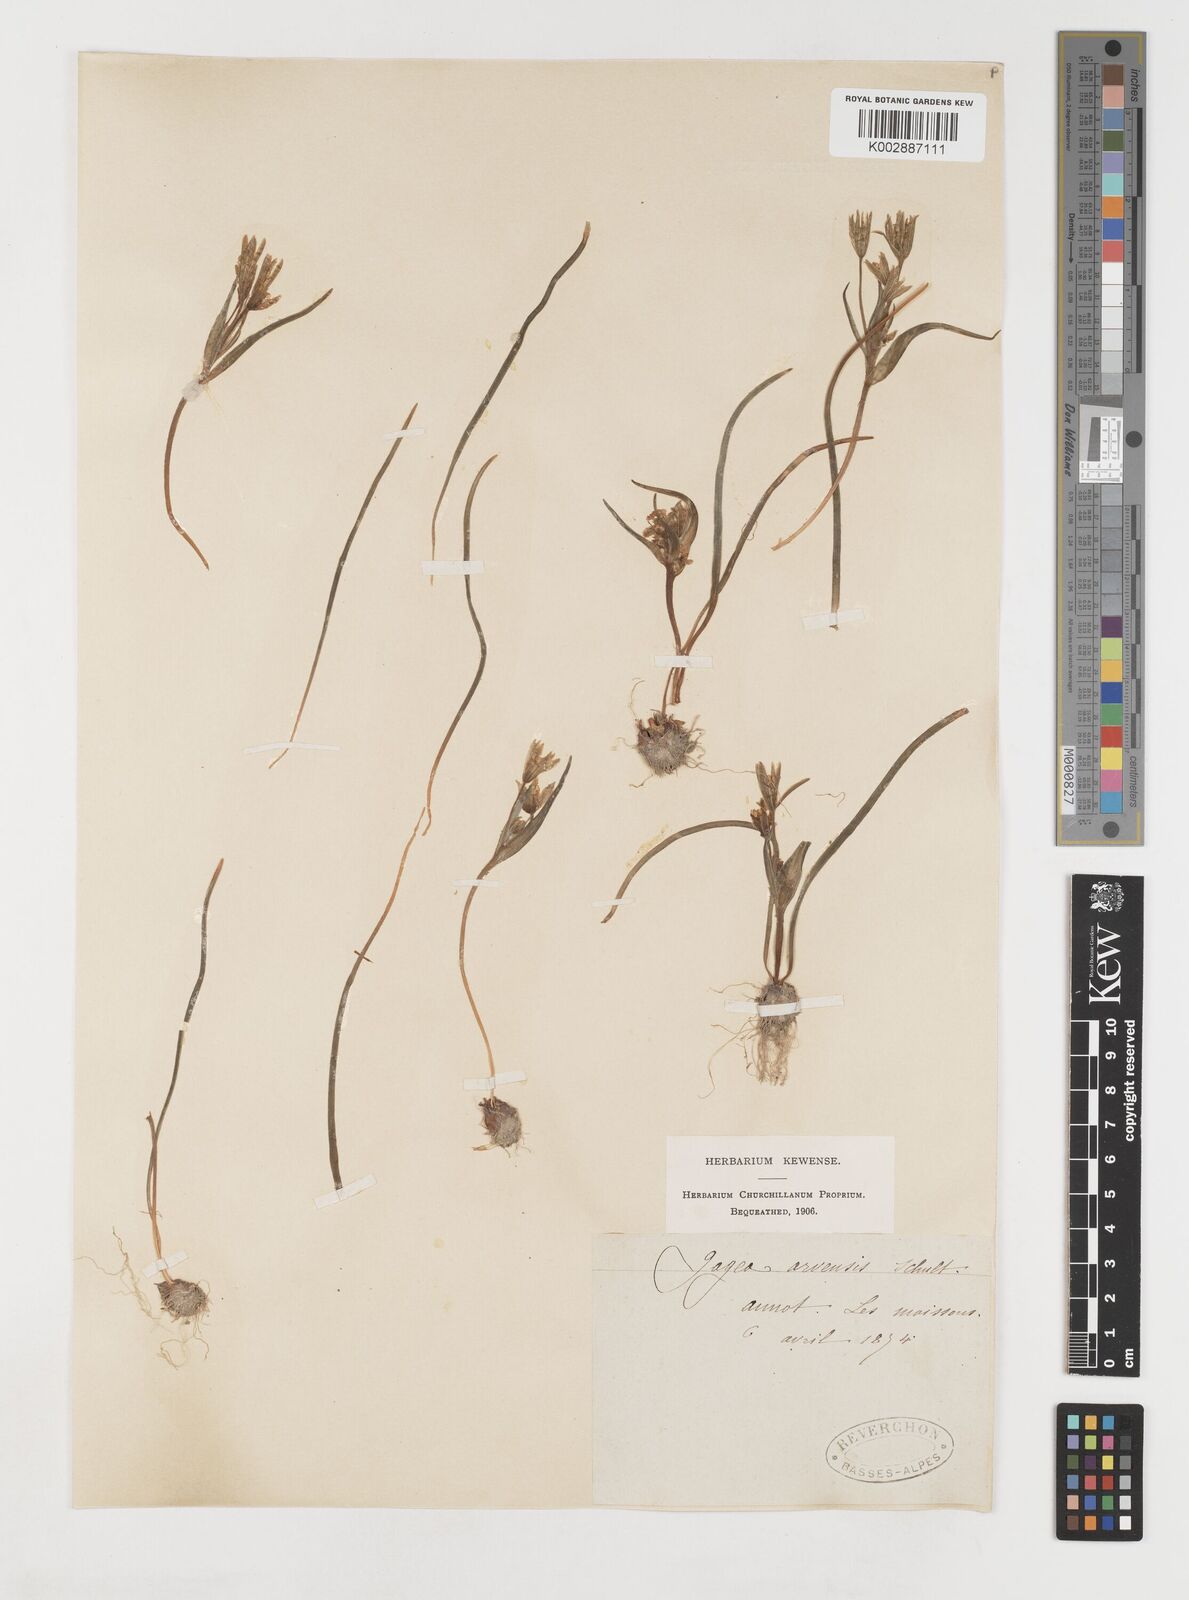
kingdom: Plantae
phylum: Tracheophyta
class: Liliopsida
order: Liliales
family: Liliaceae
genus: Gagea
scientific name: Gagea villosa
